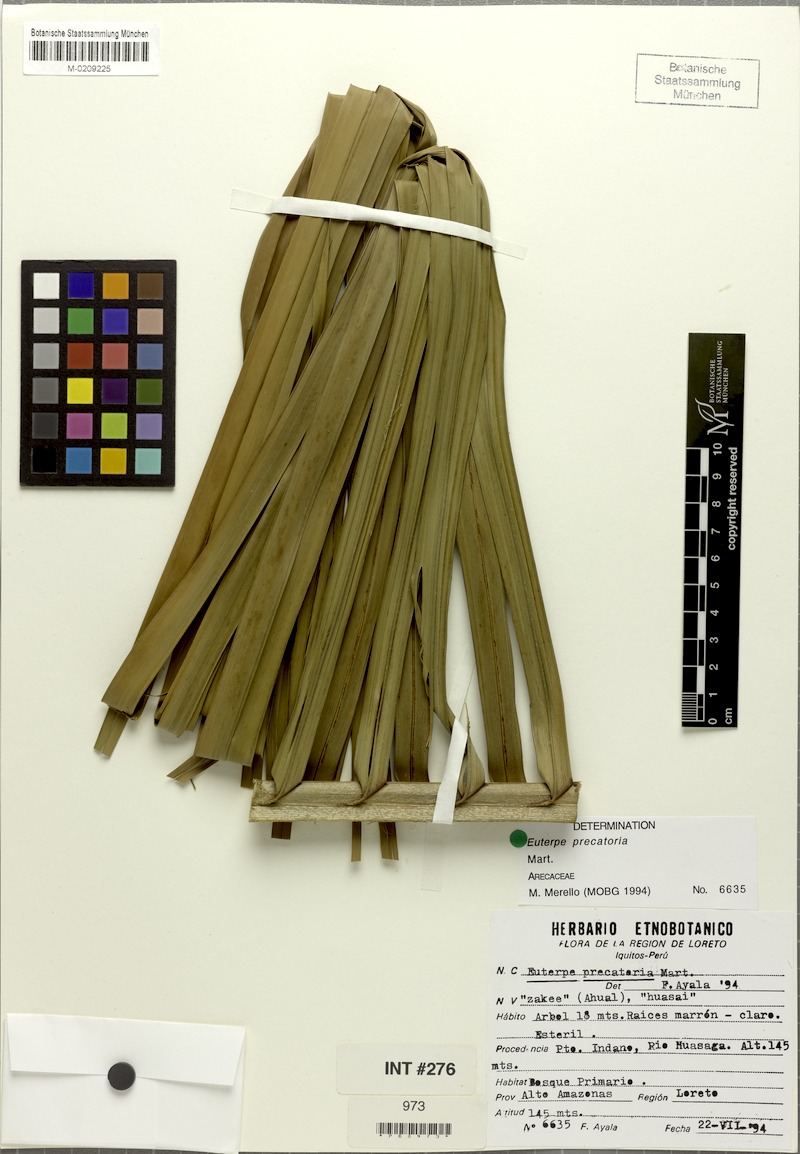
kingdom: Plantae
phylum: Tracheophyta
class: Liliopsida
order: Arecales
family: Arecaceae
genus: Euterpe
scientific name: Euterpe precatoria
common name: Mountain-cabbage
